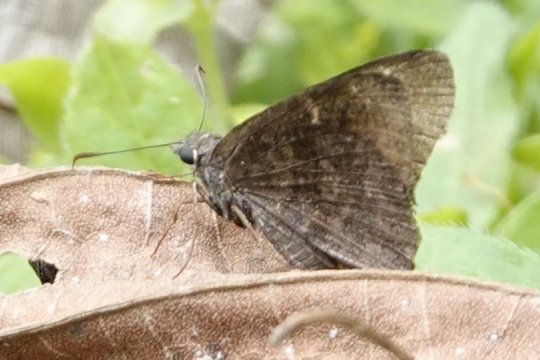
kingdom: Animalia
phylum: Arthropoda
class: Insecta
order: Lepidoptera
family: Hesperiidae
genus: Caicella
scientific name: Caicella calchas
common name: Mimosa Skipper
